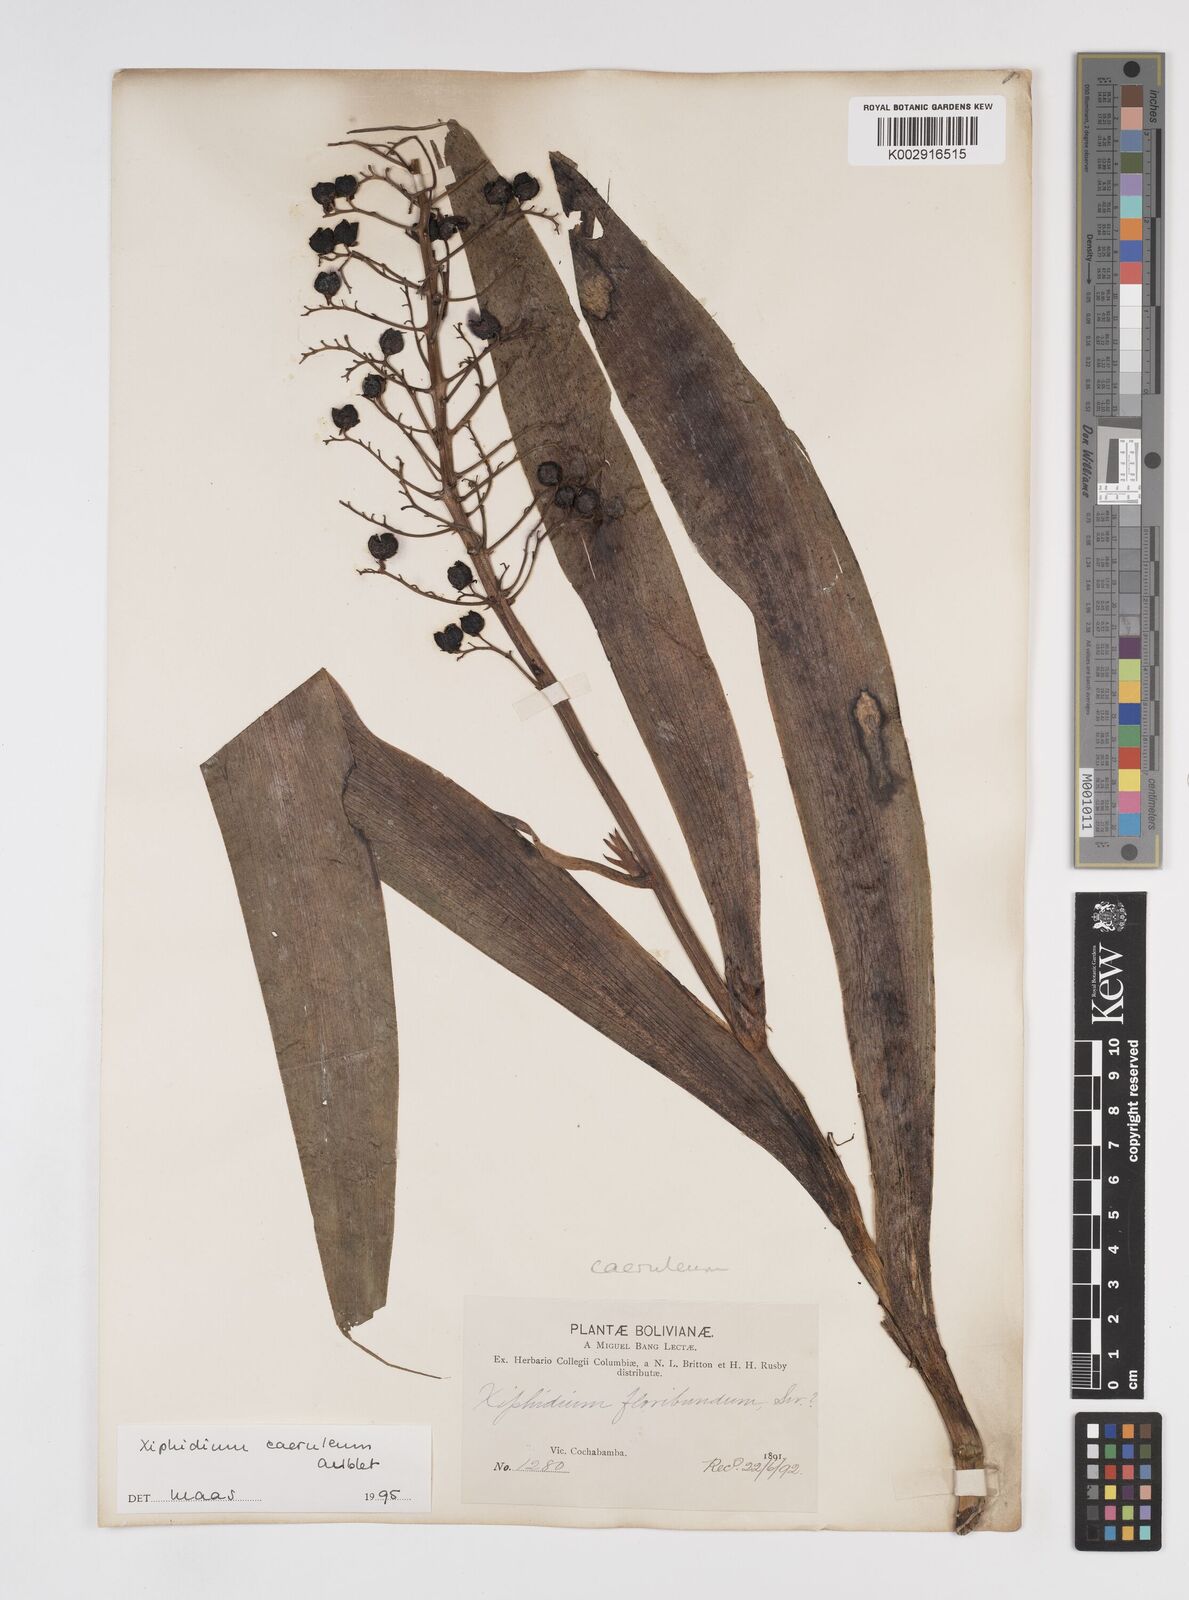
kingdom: Plantae
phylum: Tracheophyta
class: Liliopsida
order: Commelinales
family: Haemodoraceae
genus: Xiphidium
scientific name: Xiphidium caeruleum
